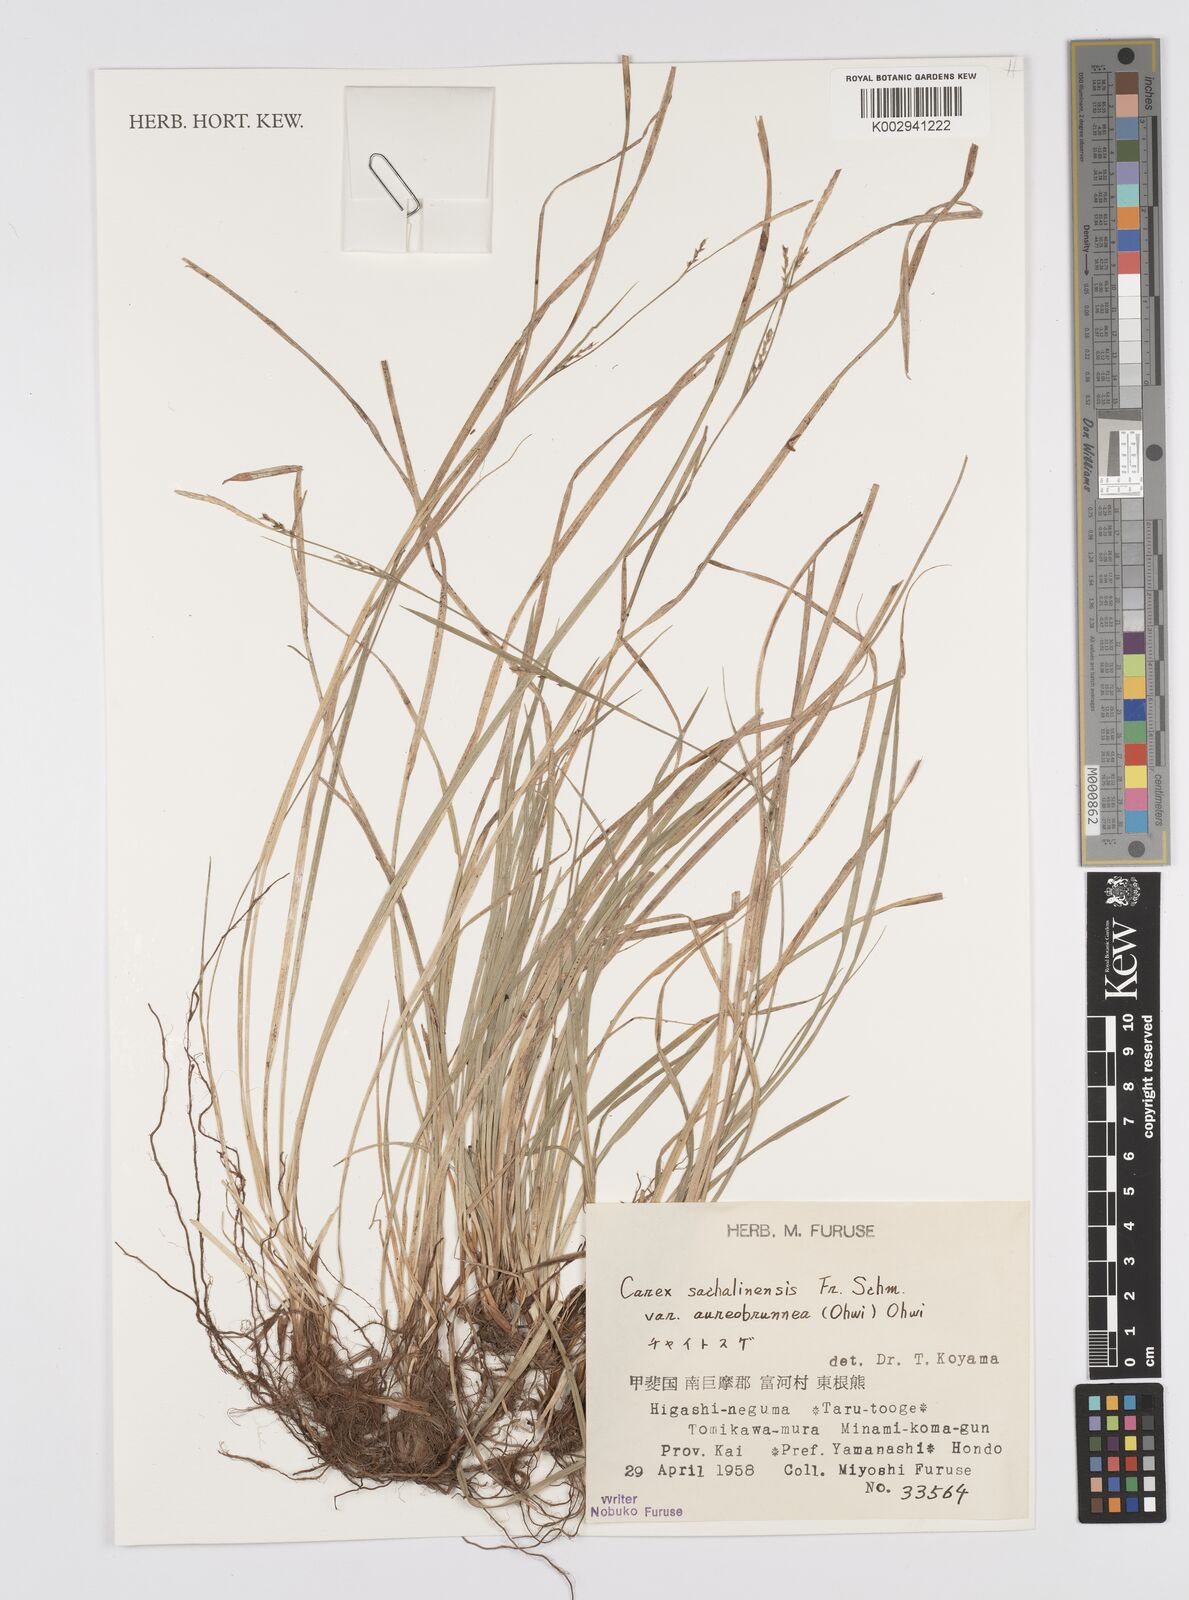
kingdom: Plantae
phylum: Tracheophyta
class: Liliopsida
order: Poales
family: Cyperaceae
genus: Carex
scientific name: Carex pisiformis
